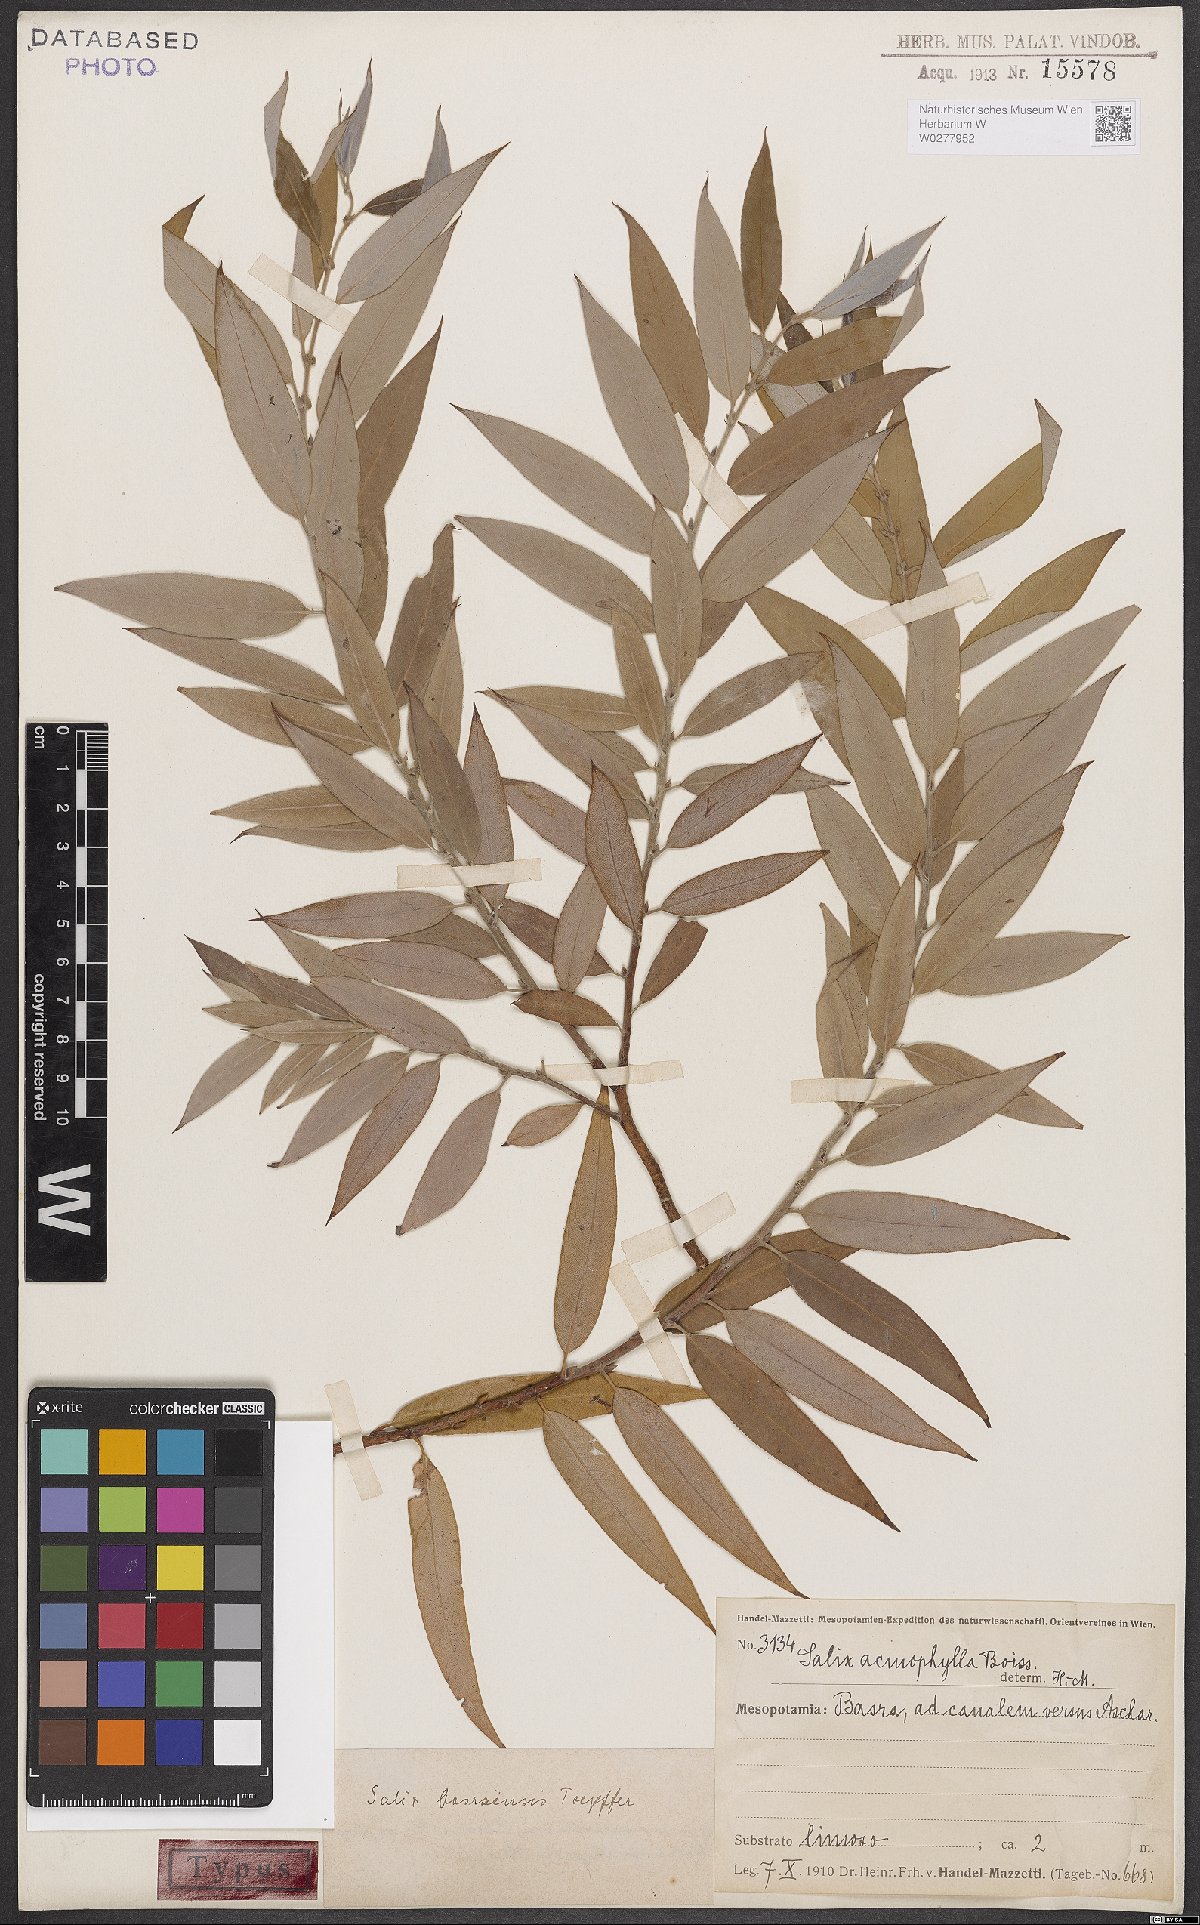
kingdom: Plantae
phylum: Tracheophyta
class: Magnoliopsida
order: Malpighiales
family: Salicaceae
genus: Salix
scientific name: Salix acmophylla
